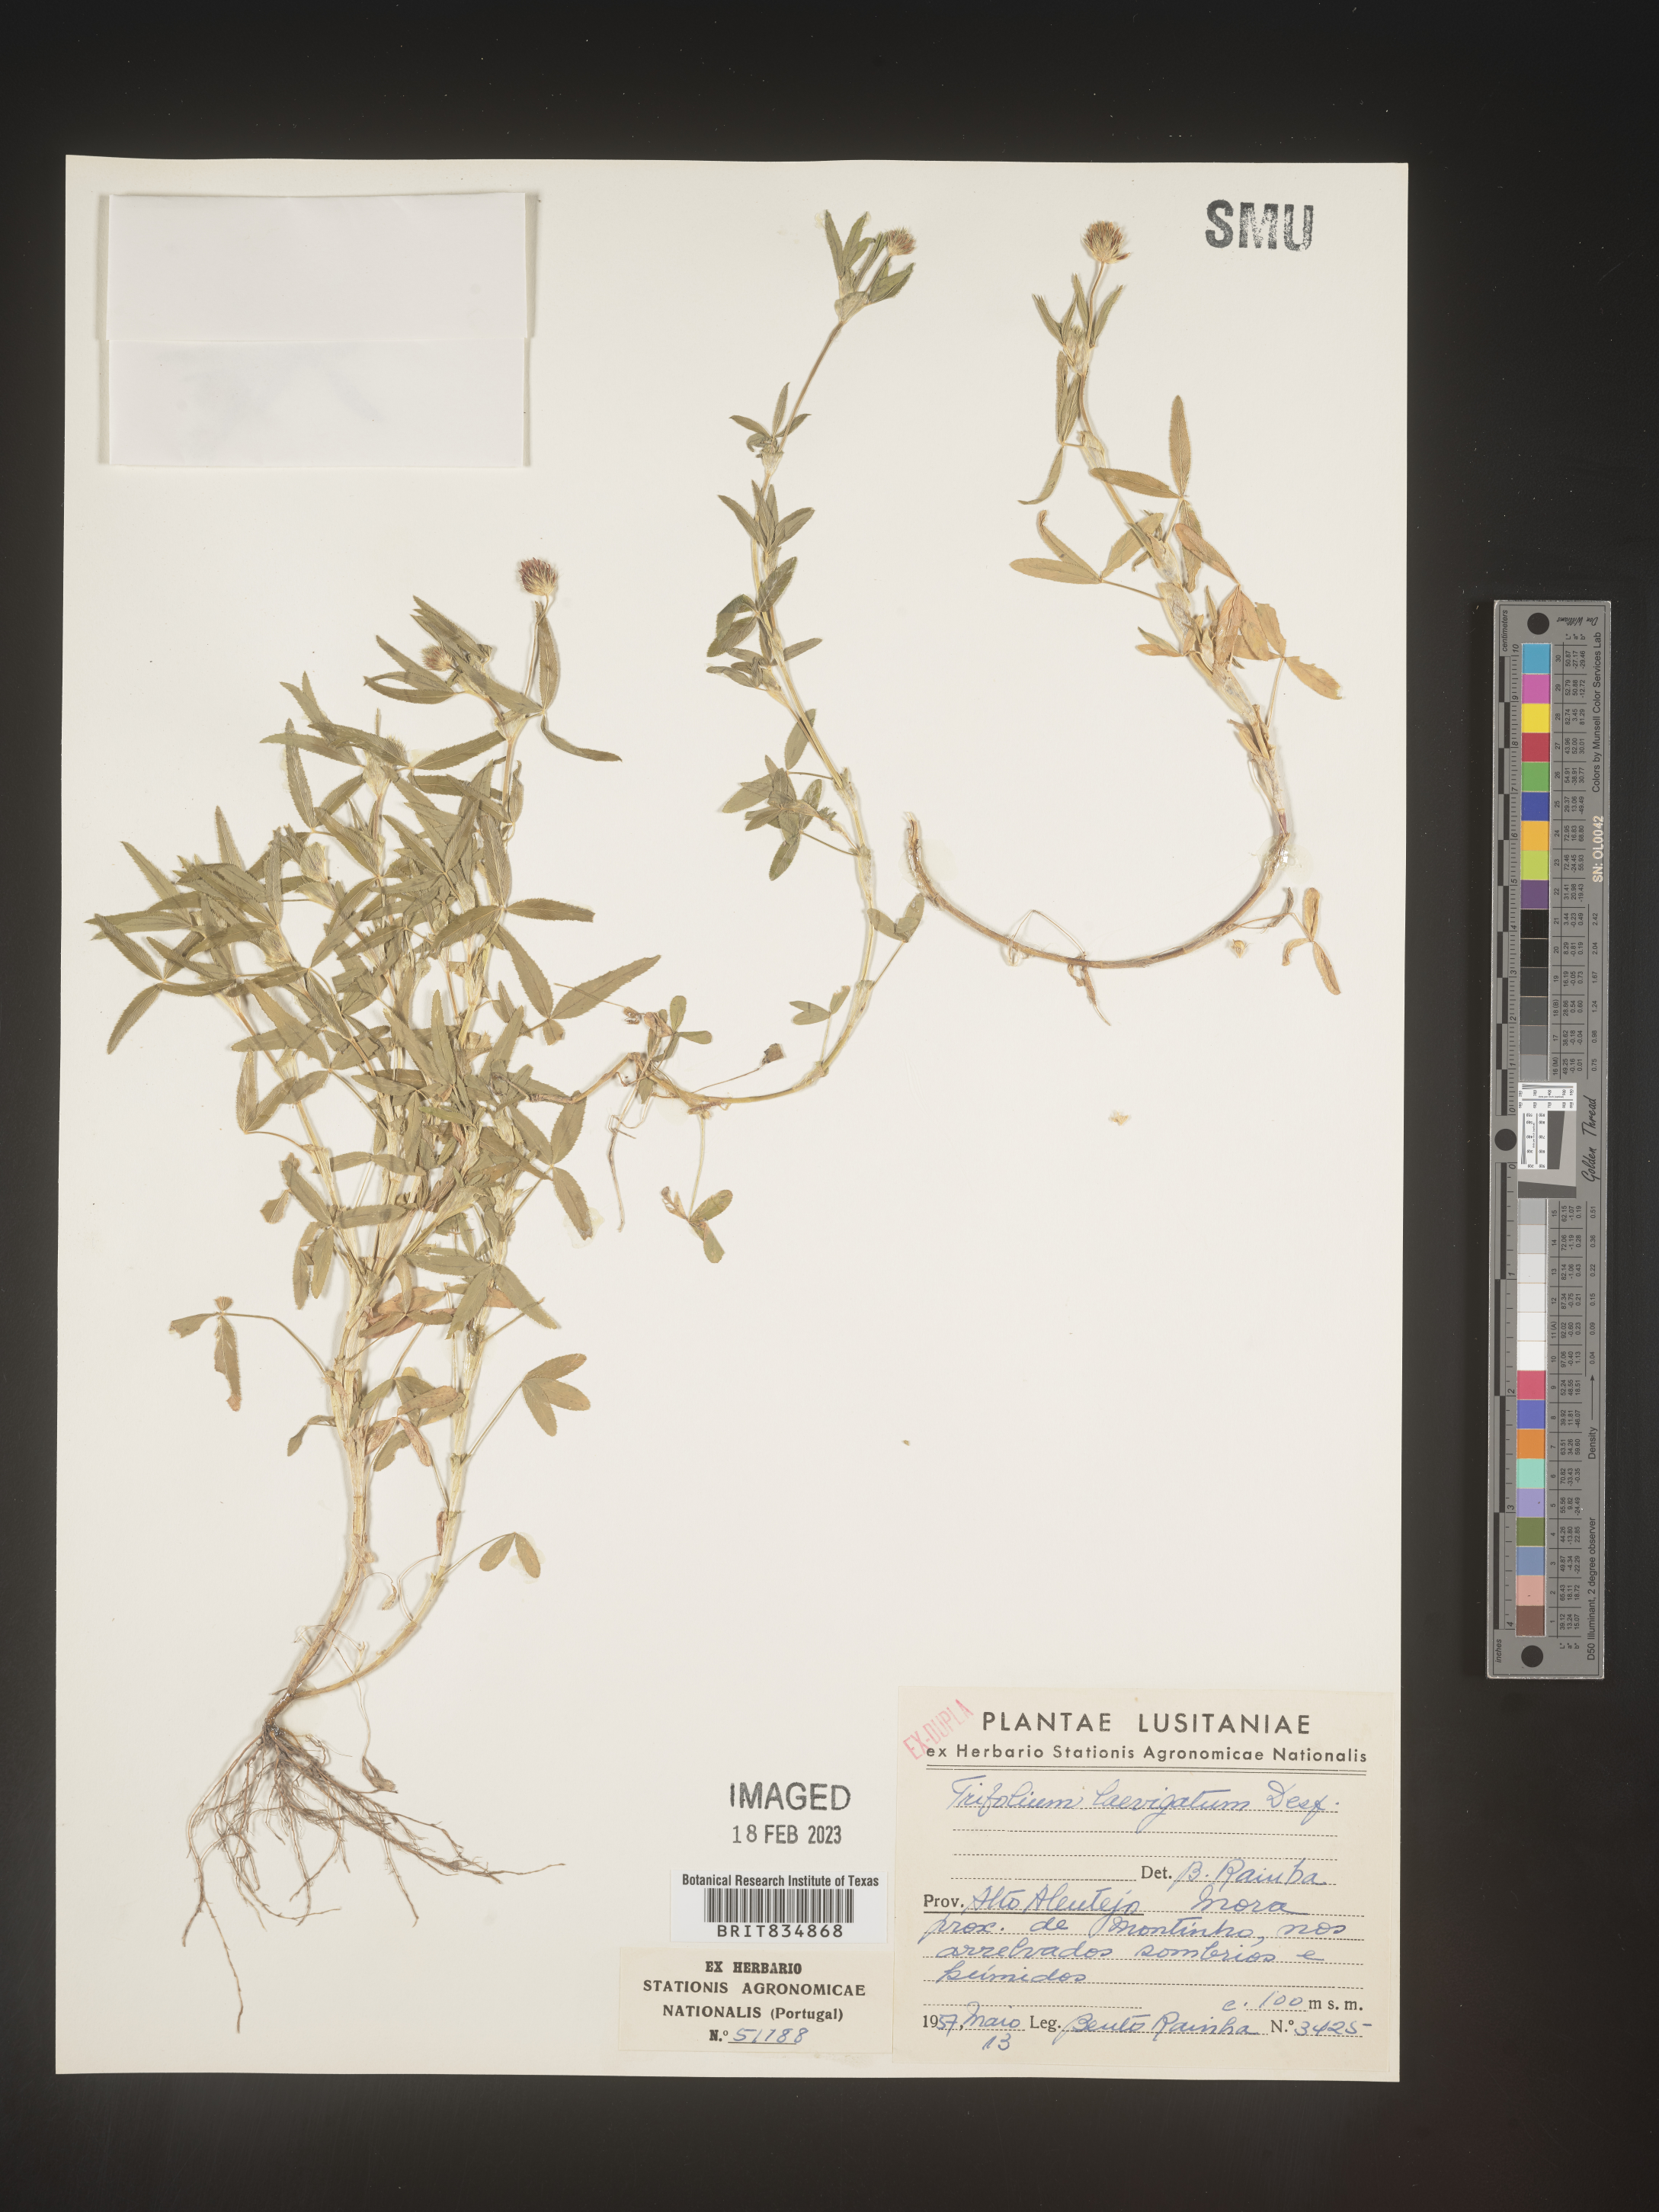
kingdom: Plantae
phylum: Tracheophyta
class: Magnoliopsida
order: Fabales
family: Fabaceae
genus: Trifolium
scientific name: Trifolium incarnatum
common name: Crimson clover
